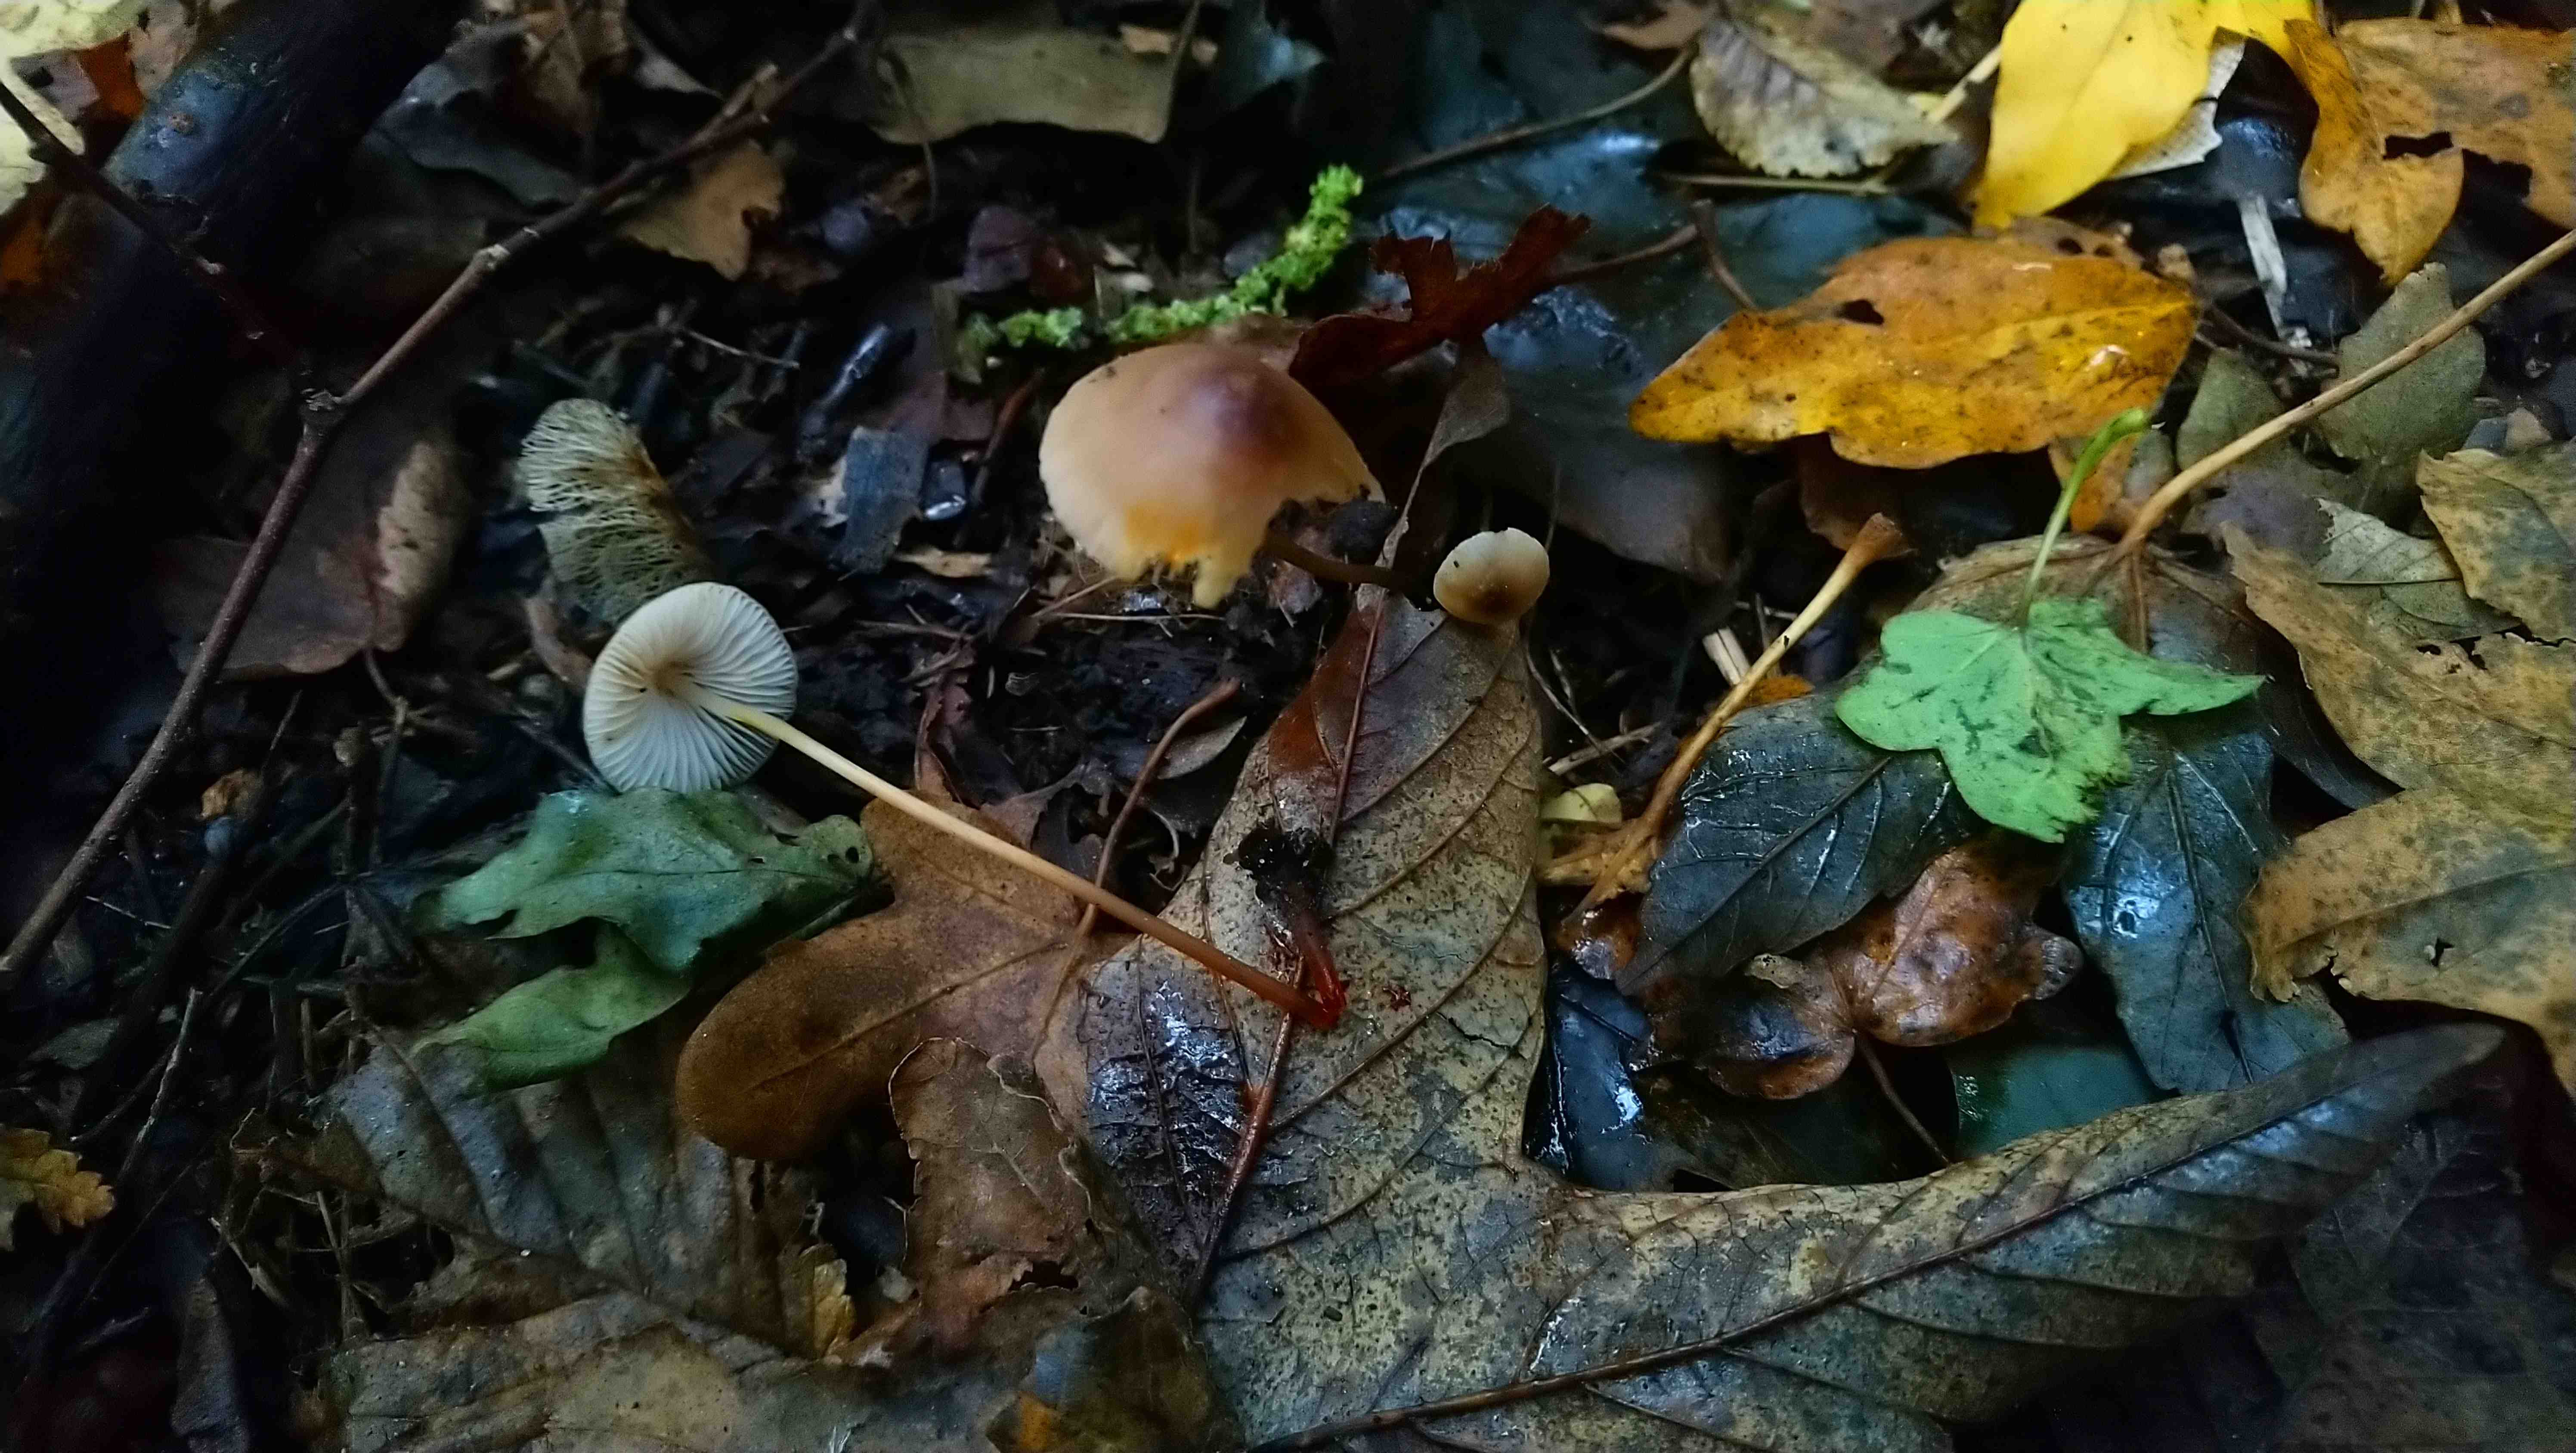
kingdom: Fungi
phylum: Basidiomycota
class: Agaricomycetes
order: Agaricales
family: Mycenaceae
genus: Mycena
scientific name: Mycena crocata
